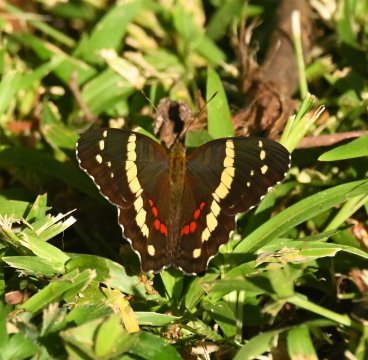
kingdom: Animalia
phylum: Arthropoda
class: Insecta
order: Lepidoptera
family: Nymphalidae
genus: Anartia
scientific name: Anartia fatima
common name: Banded Peacock
